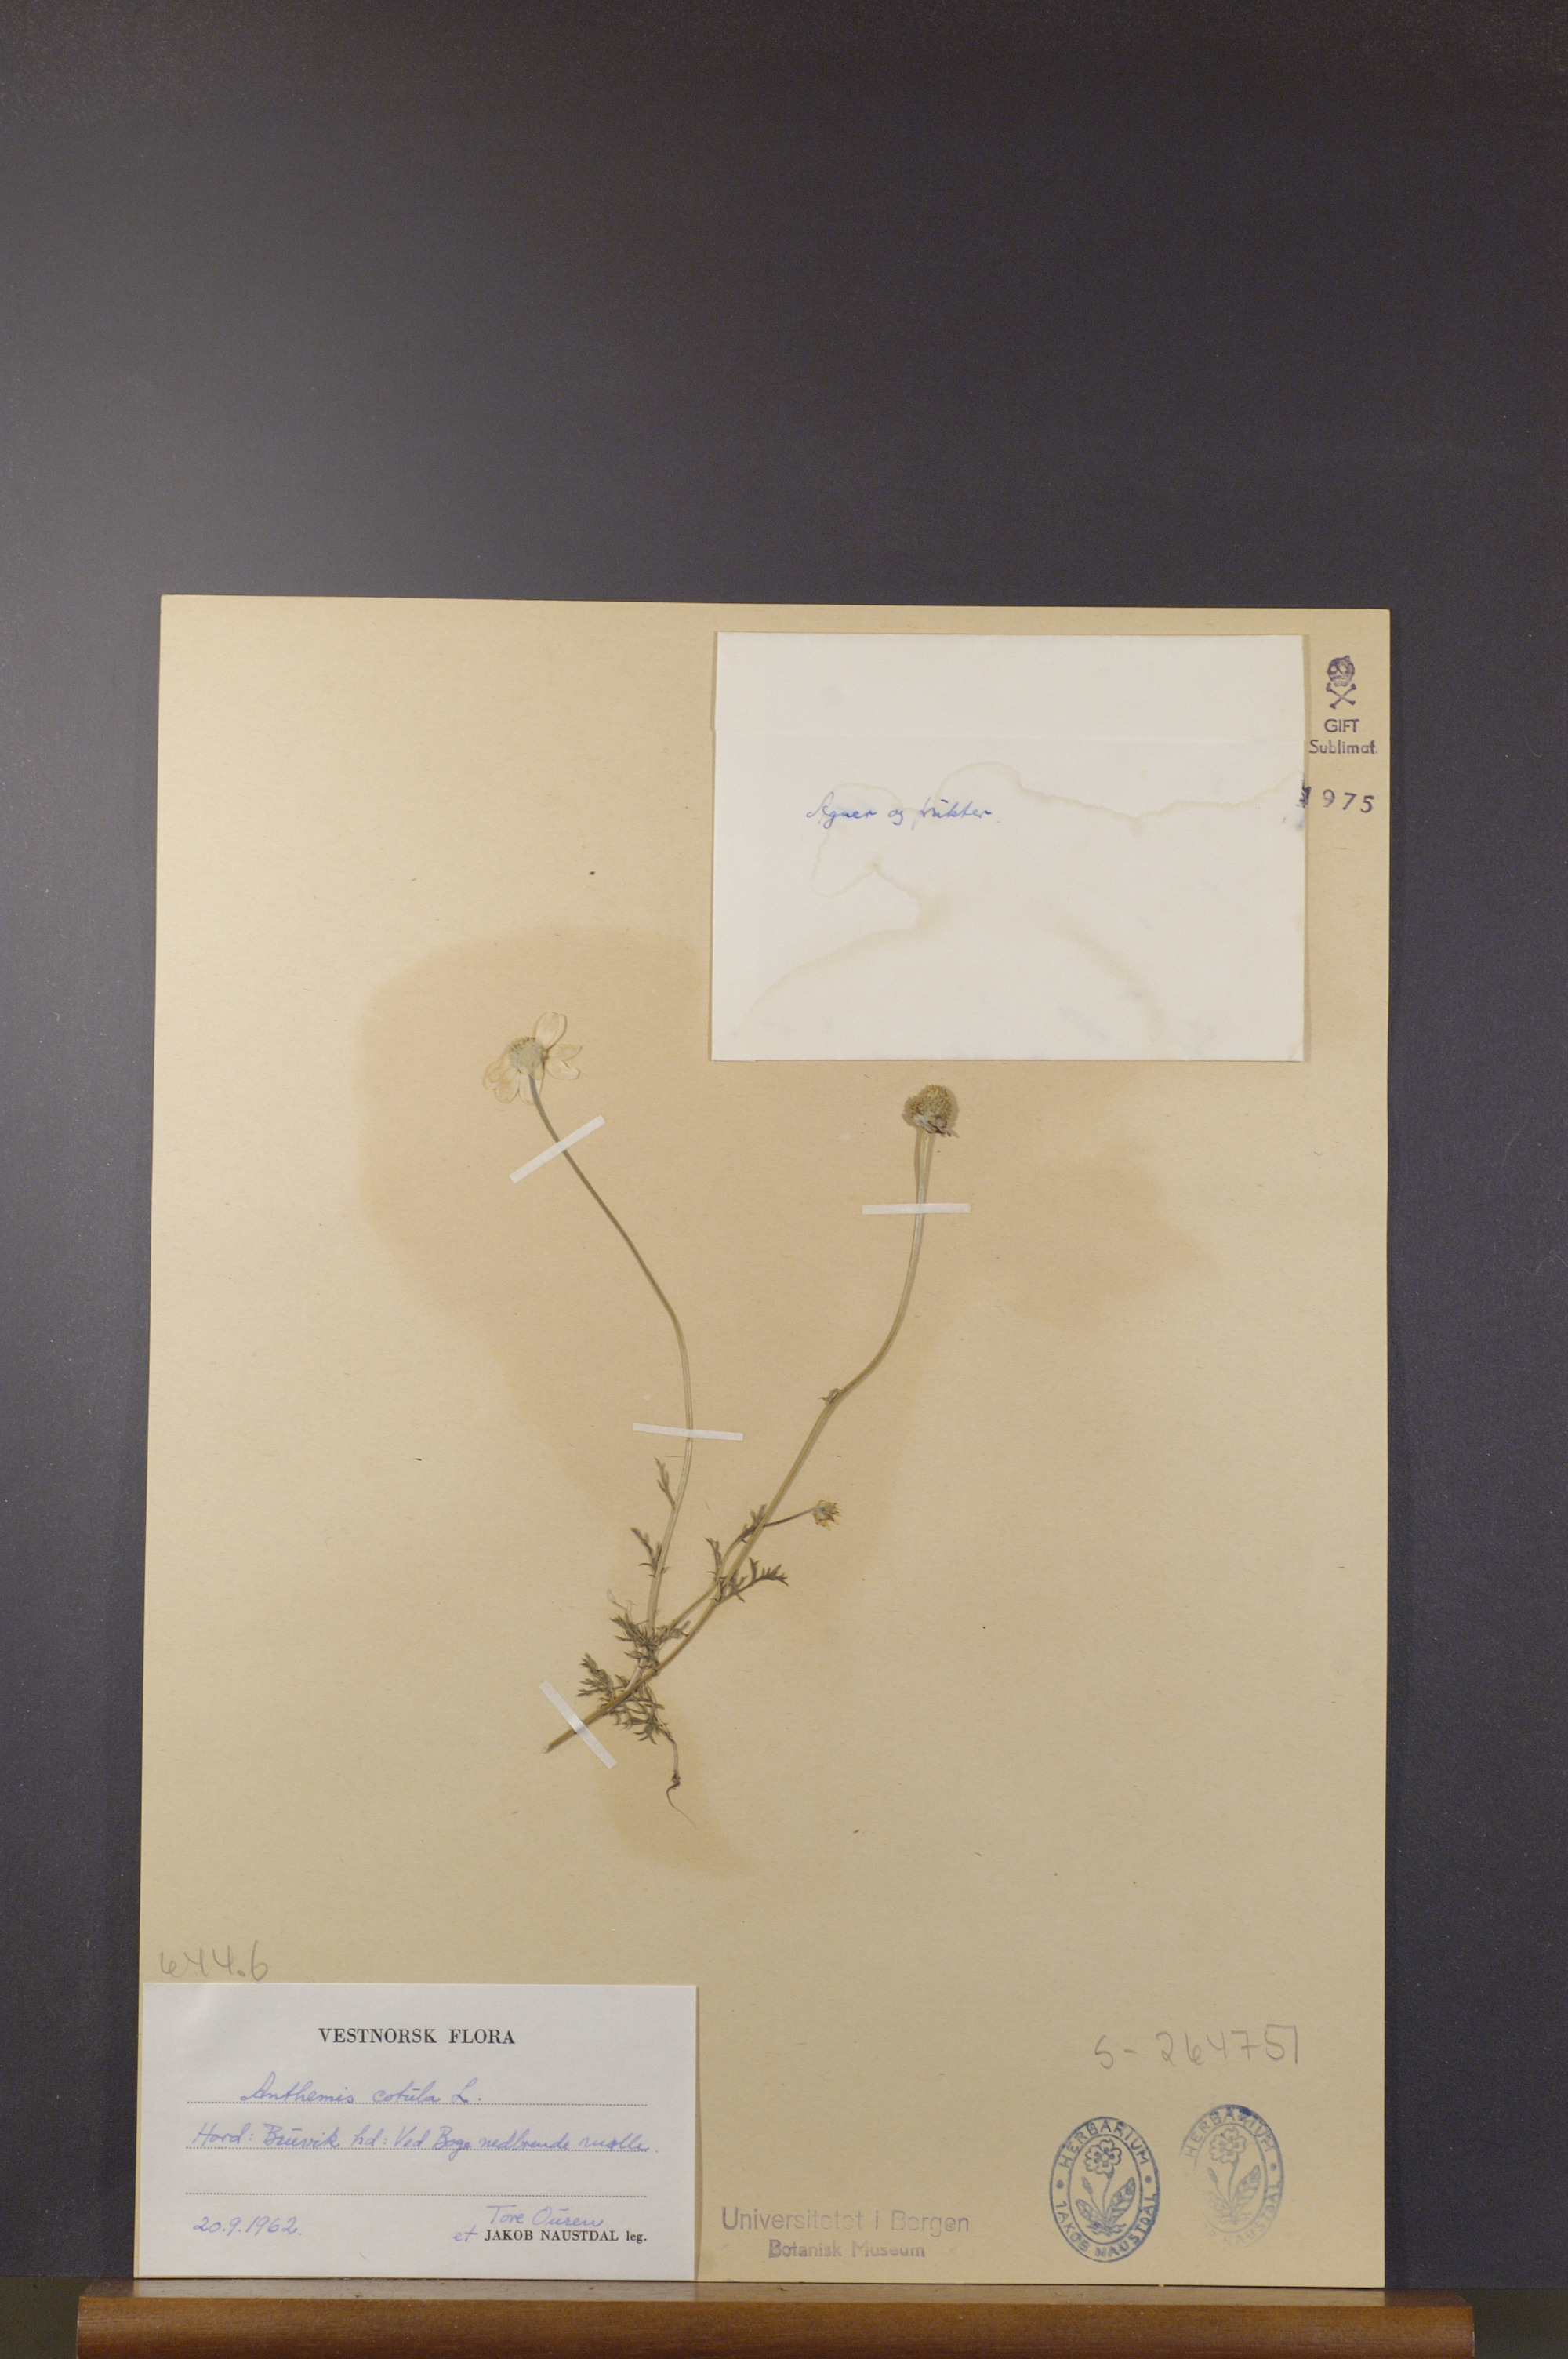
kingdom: Plantae
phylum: Tracheophyta
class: Magnoliopsida
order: Asterales
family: Asteraceae
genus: Anthemis
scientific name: Anthemis cotula
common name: Stinking chamomile
